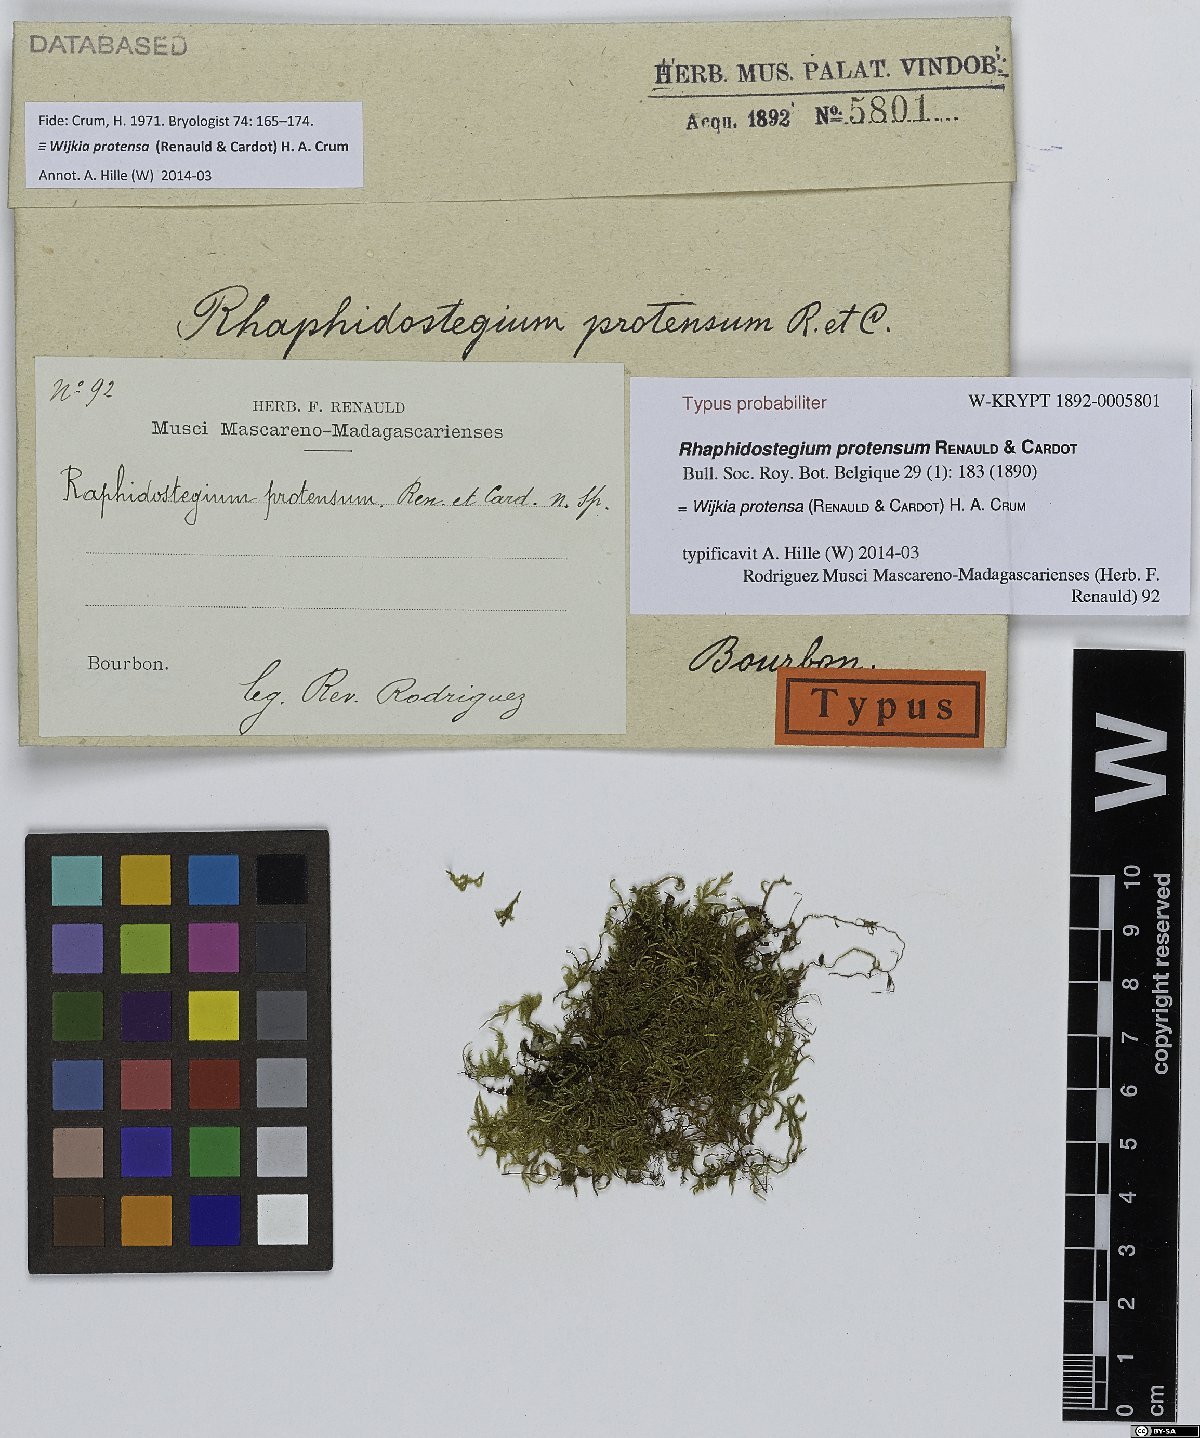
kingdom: Plantae
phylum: Bryophyta
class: Bryopsida
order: Hypnales
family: Pylaisiadelphaceae
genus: Wijkia
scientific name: Wijkia protensa
